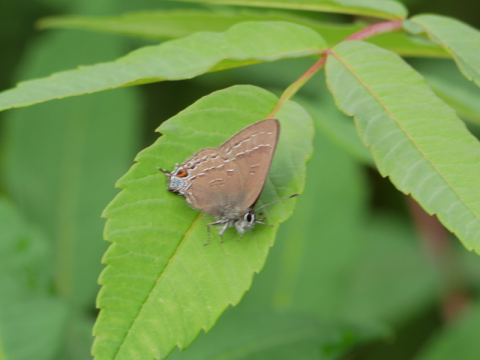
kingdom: Animalia
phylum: Arthropoda
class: Insecta
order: Lepidoptera
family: Lycaenidae
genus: Satyrium
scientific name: Satyrium calanus
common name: Banded Hairstreak
